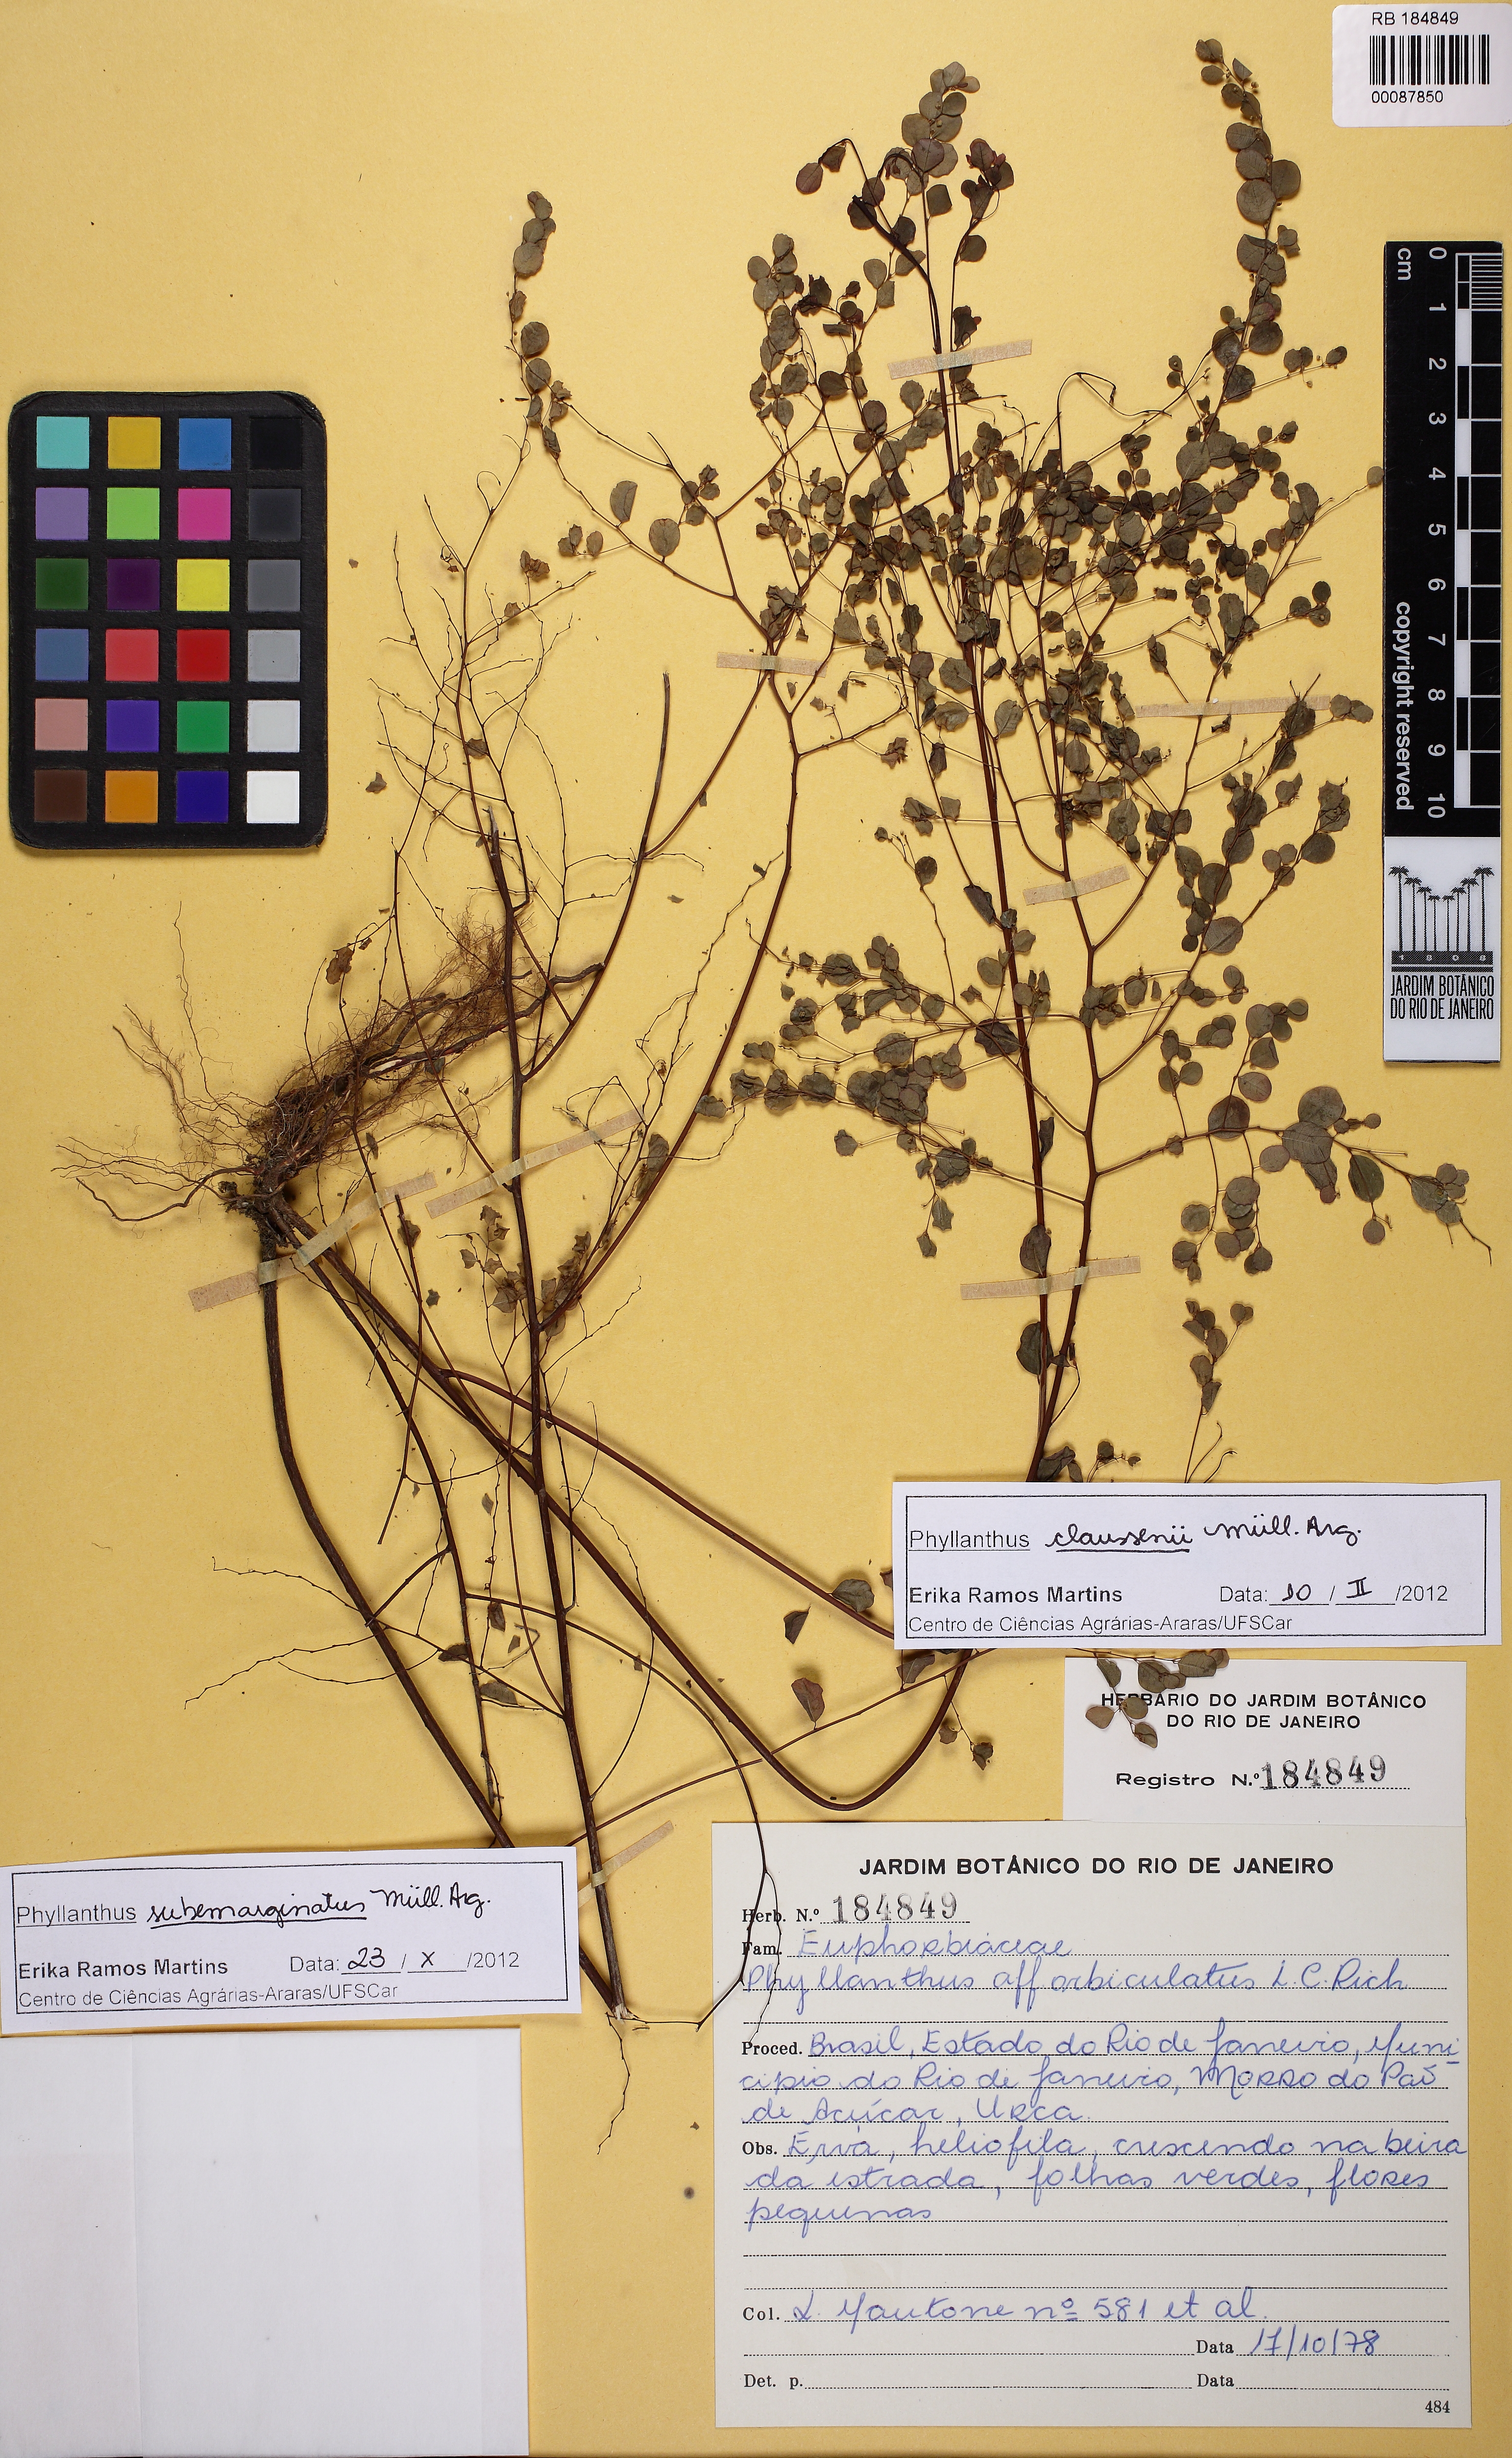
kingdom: Plantae
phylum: Tracheophyta
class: Magnoliopsida
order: Malpighiales
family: Phyllanthaceae
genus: Phyllanthus
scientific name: Phyllanthus subemarginatus
